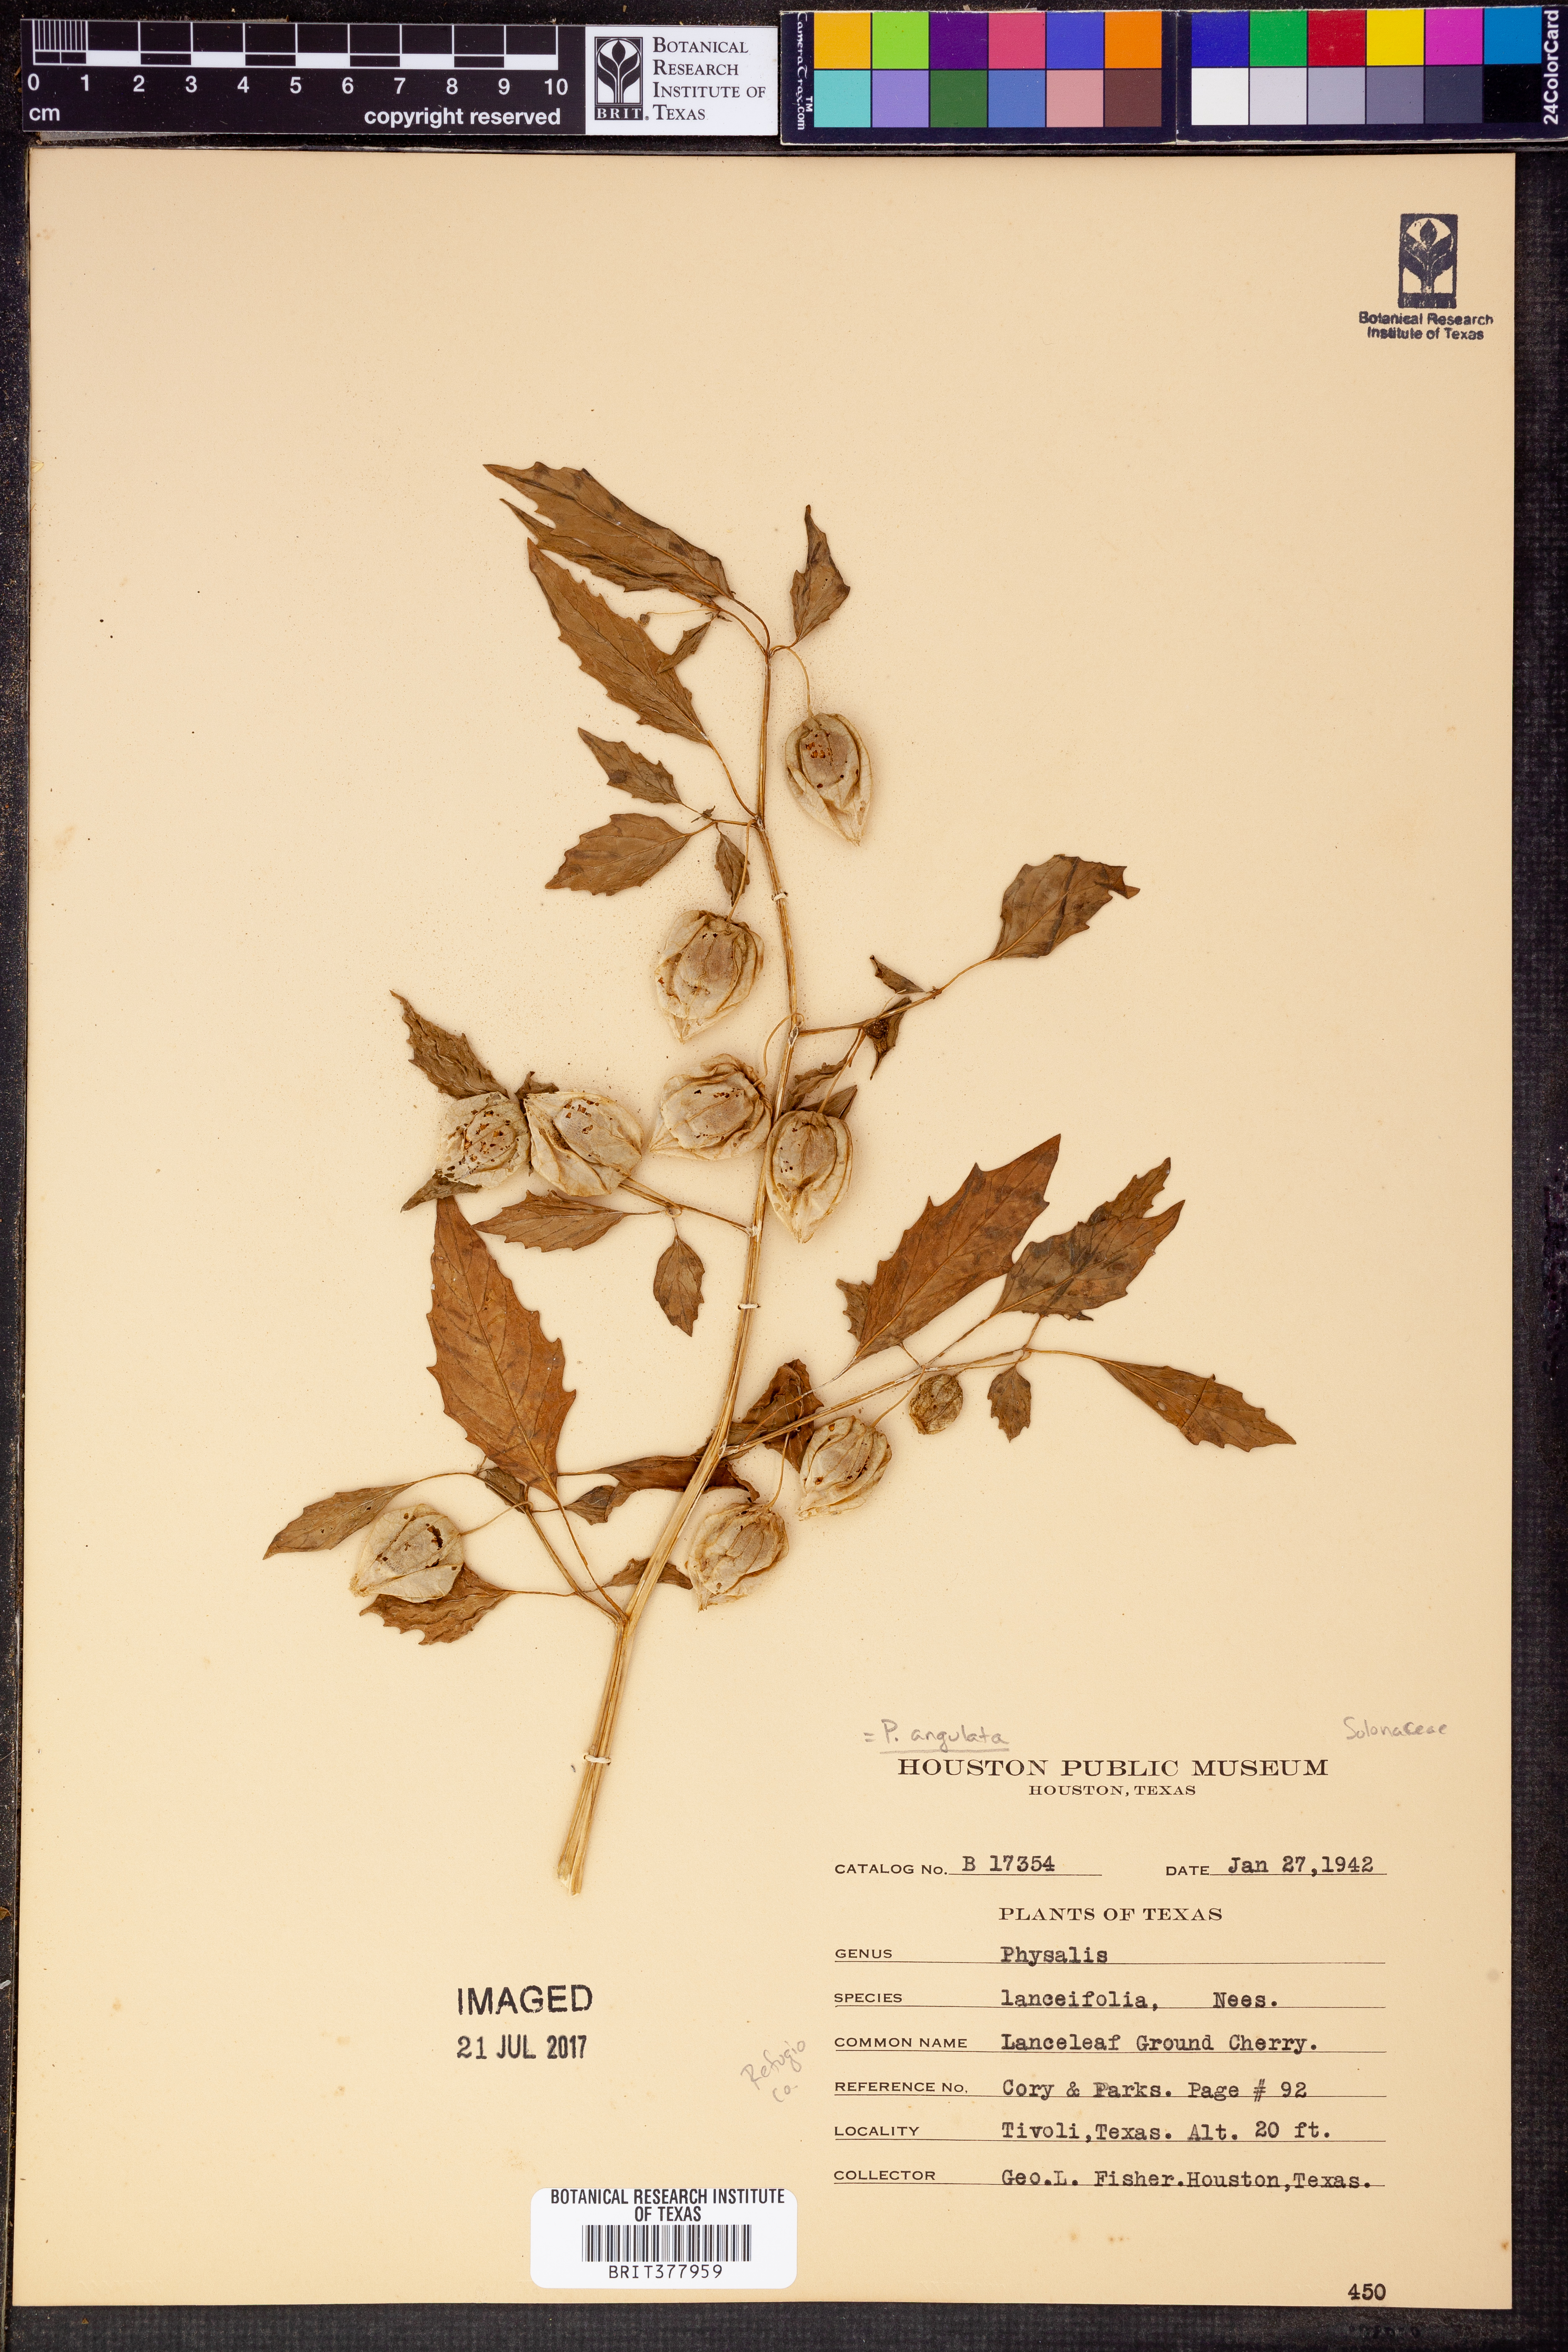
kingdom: Plantae
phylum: Tracheophyta
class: Magnoliopsida
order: Solanales
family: Solanaceae
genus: Physalis
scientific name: Physalis angulata
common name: Angular winter-cherry
